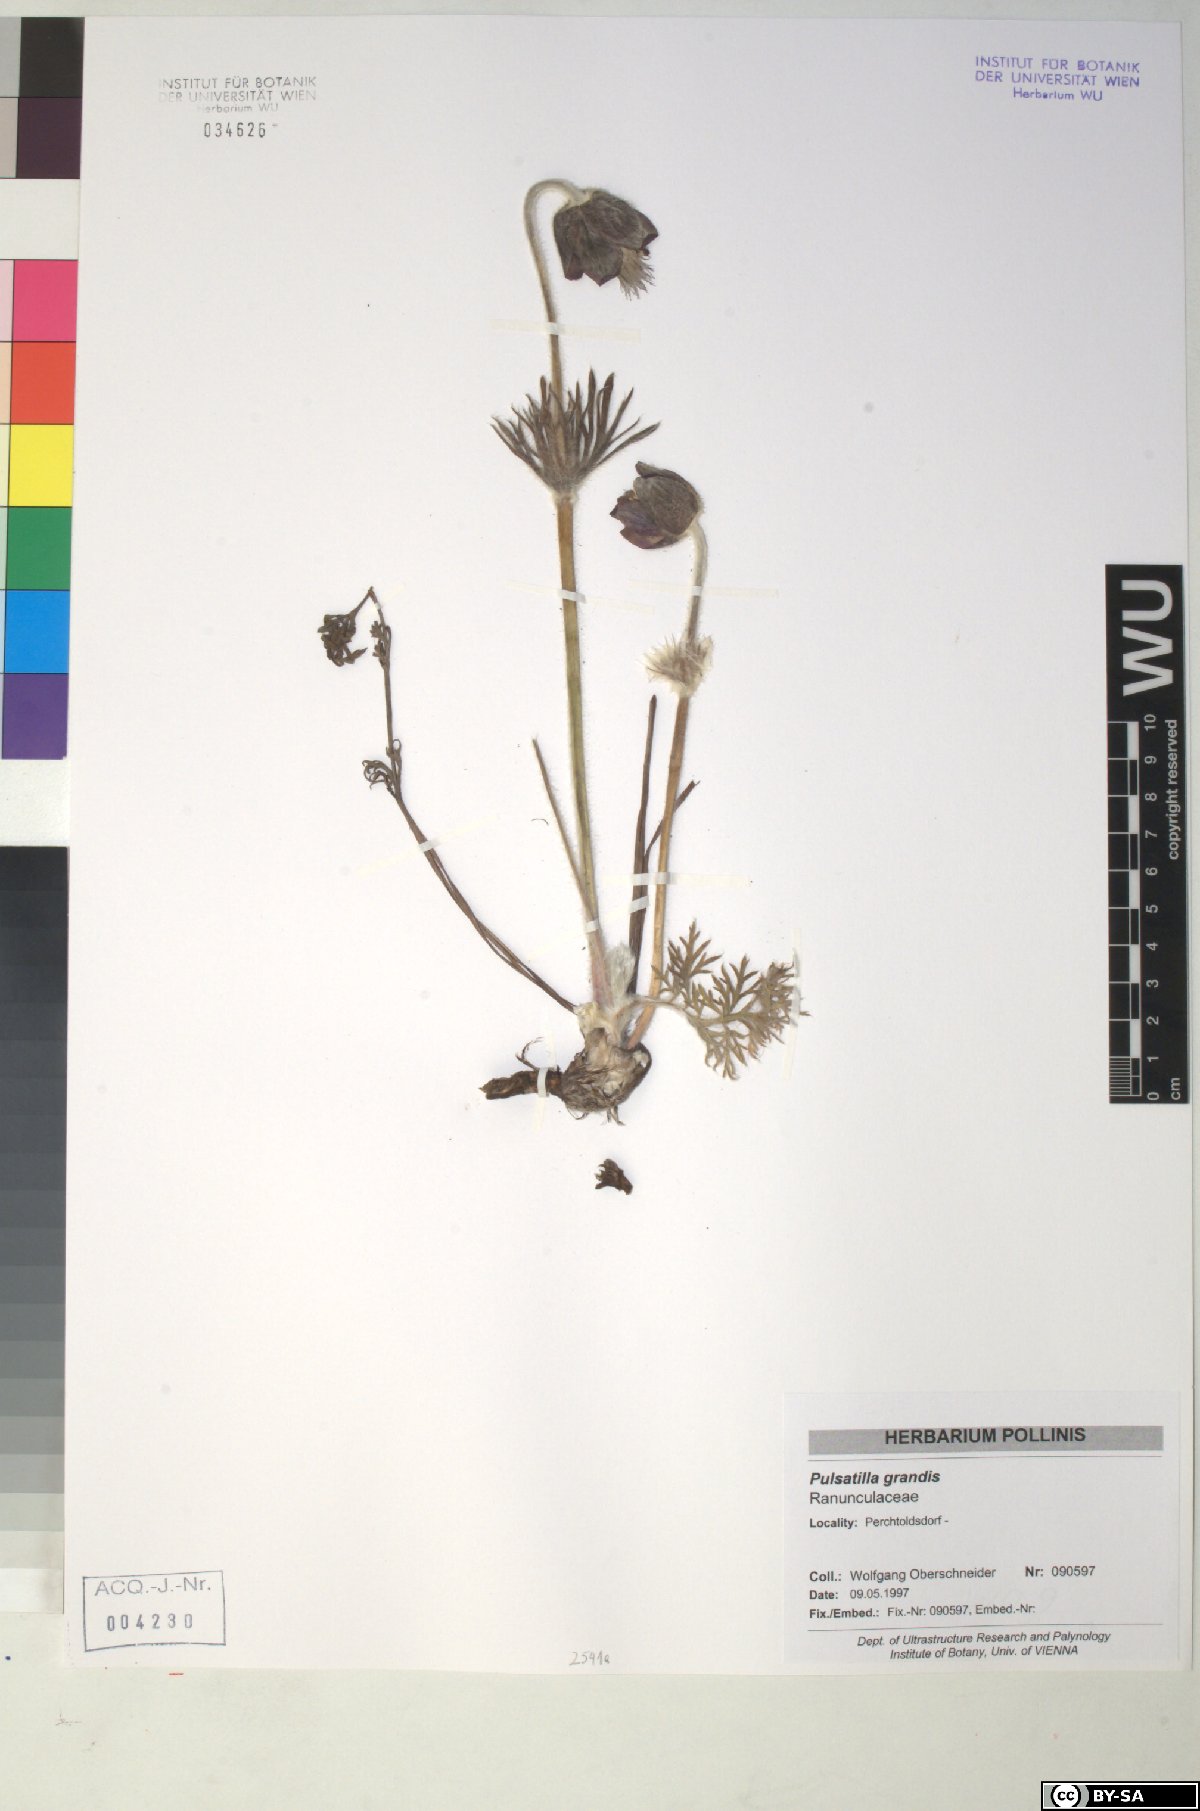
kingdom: Plantae
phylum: Tracheophyta
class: Magnoliopsida
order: Ranunculales
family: Ranunculaceae
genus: Pulsatilla
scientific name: Pulsatilla grandis
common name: Greater pasque flower
